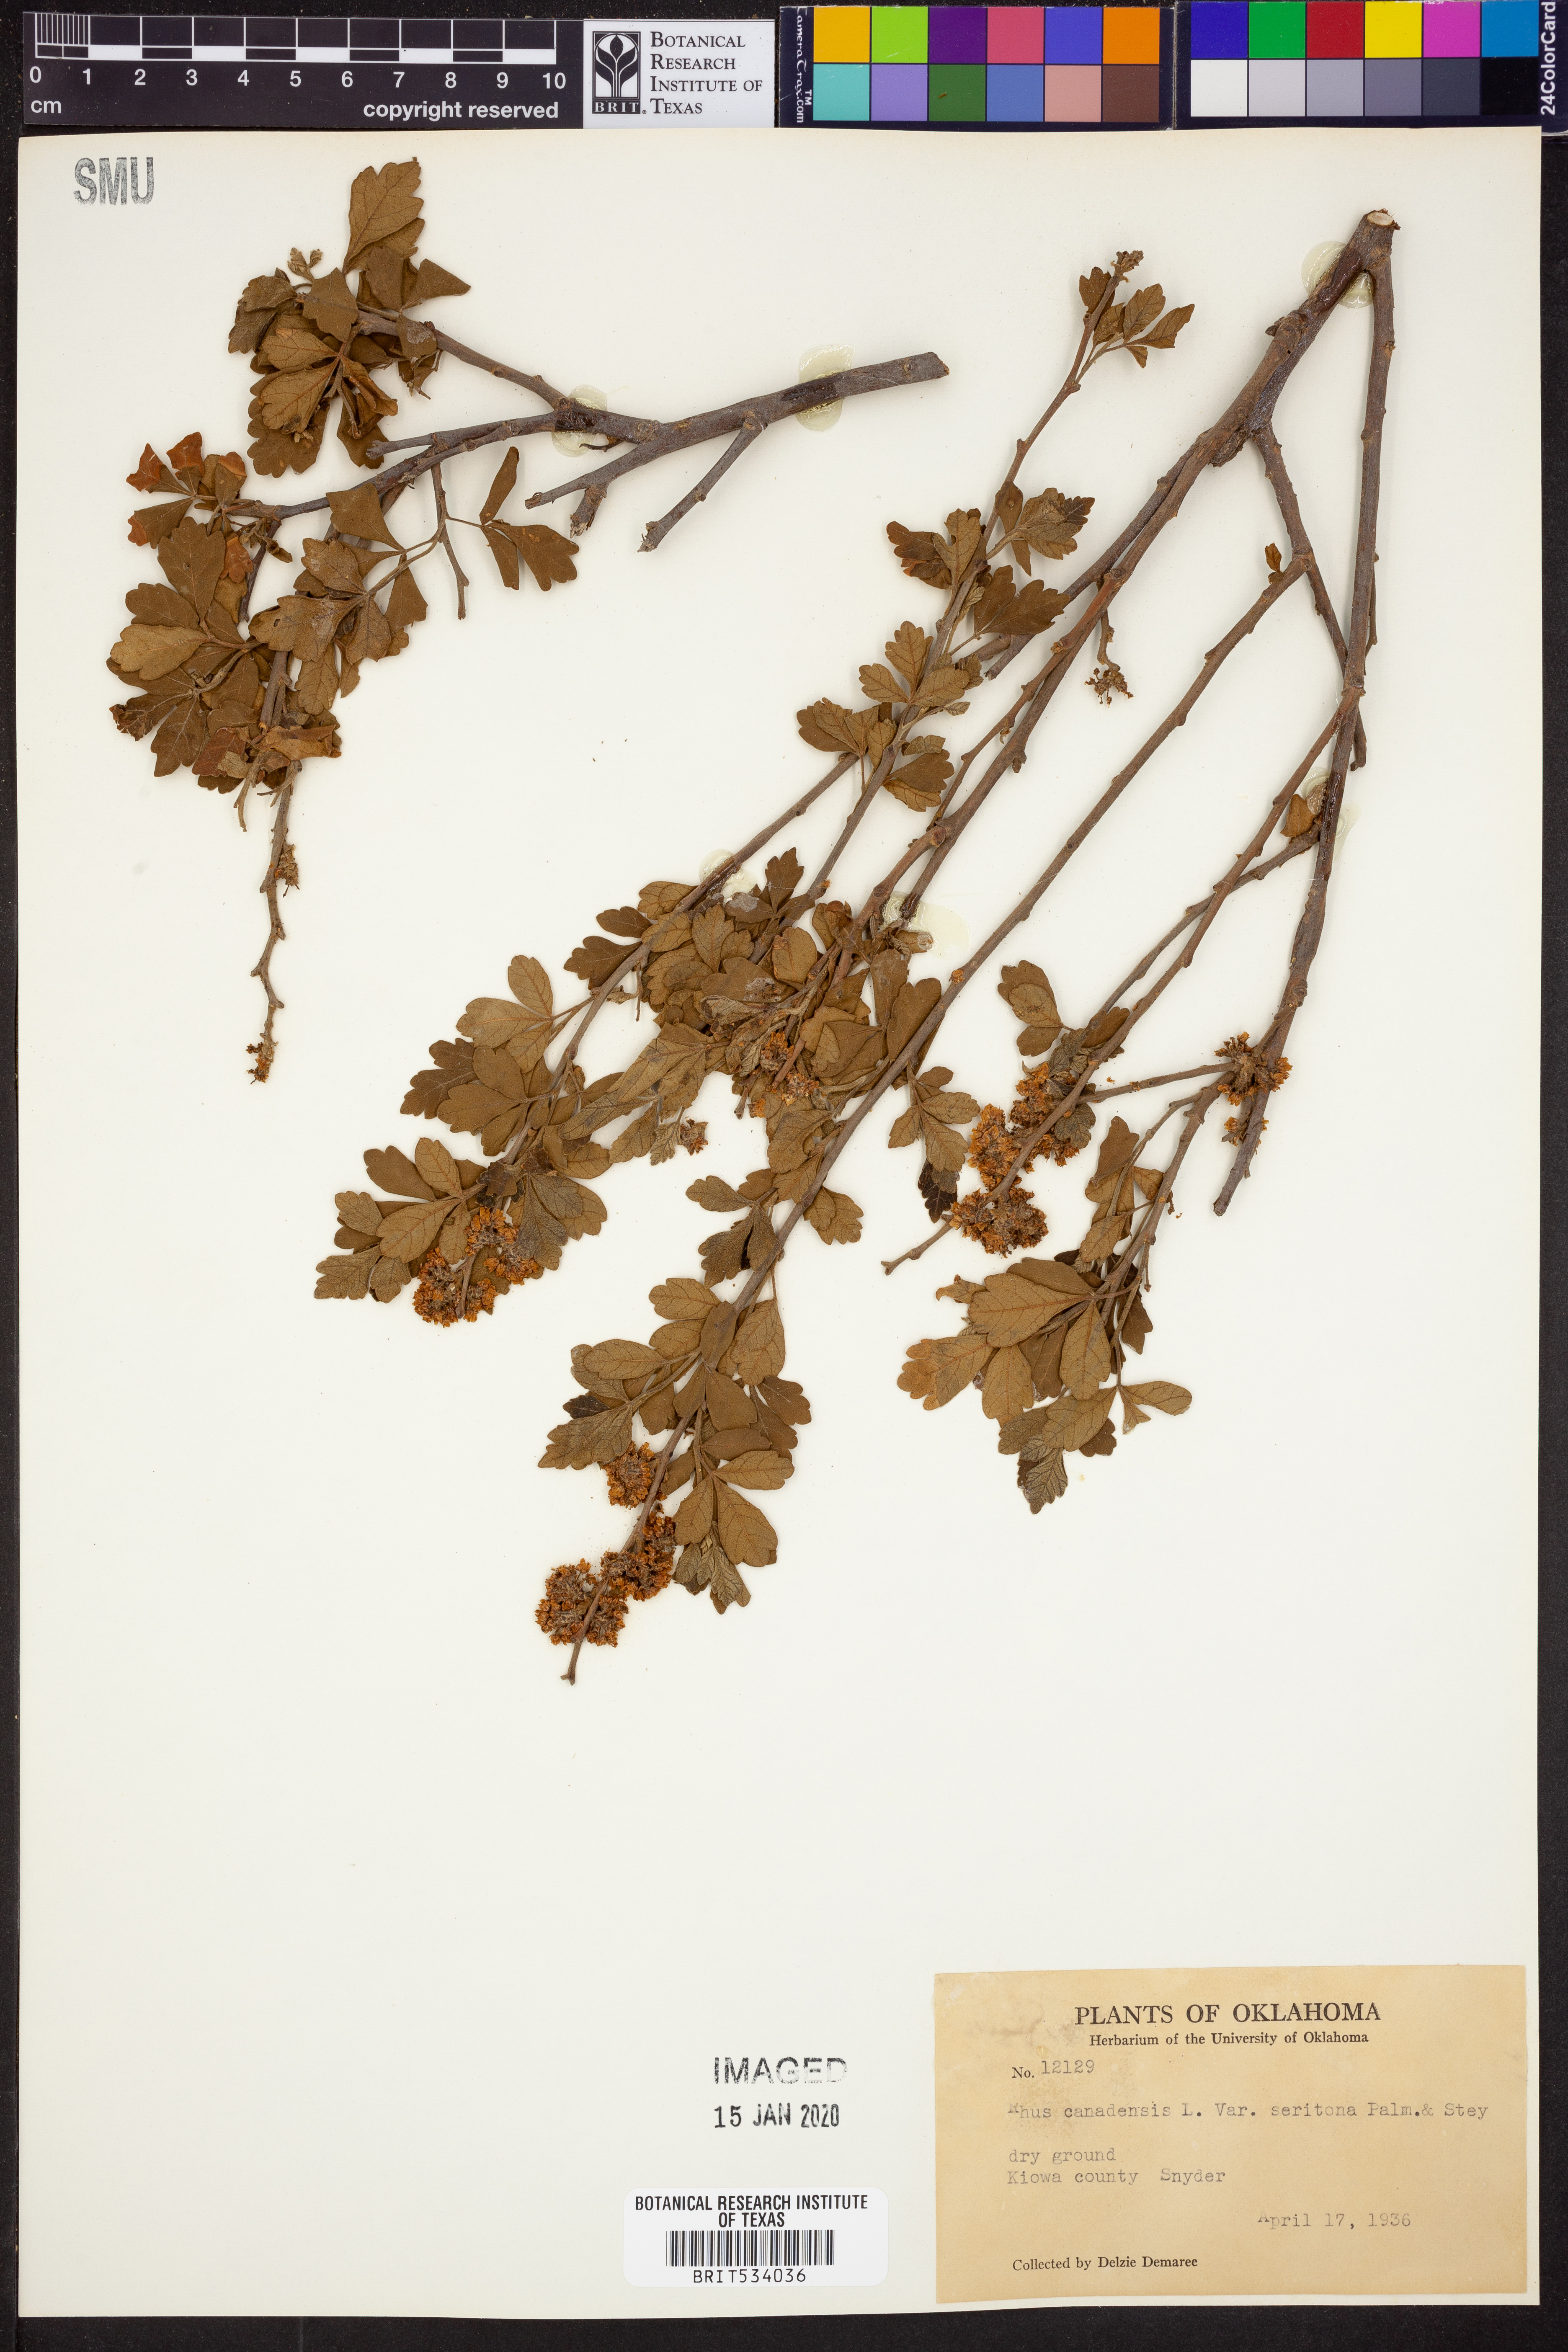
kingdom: Plantae
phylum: Tracheophyta
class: Magnoliopsida
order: Sapindales
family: Anacardiaceae
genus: Rhus
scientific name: Rhus aromatica
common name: Aromatic sumac
